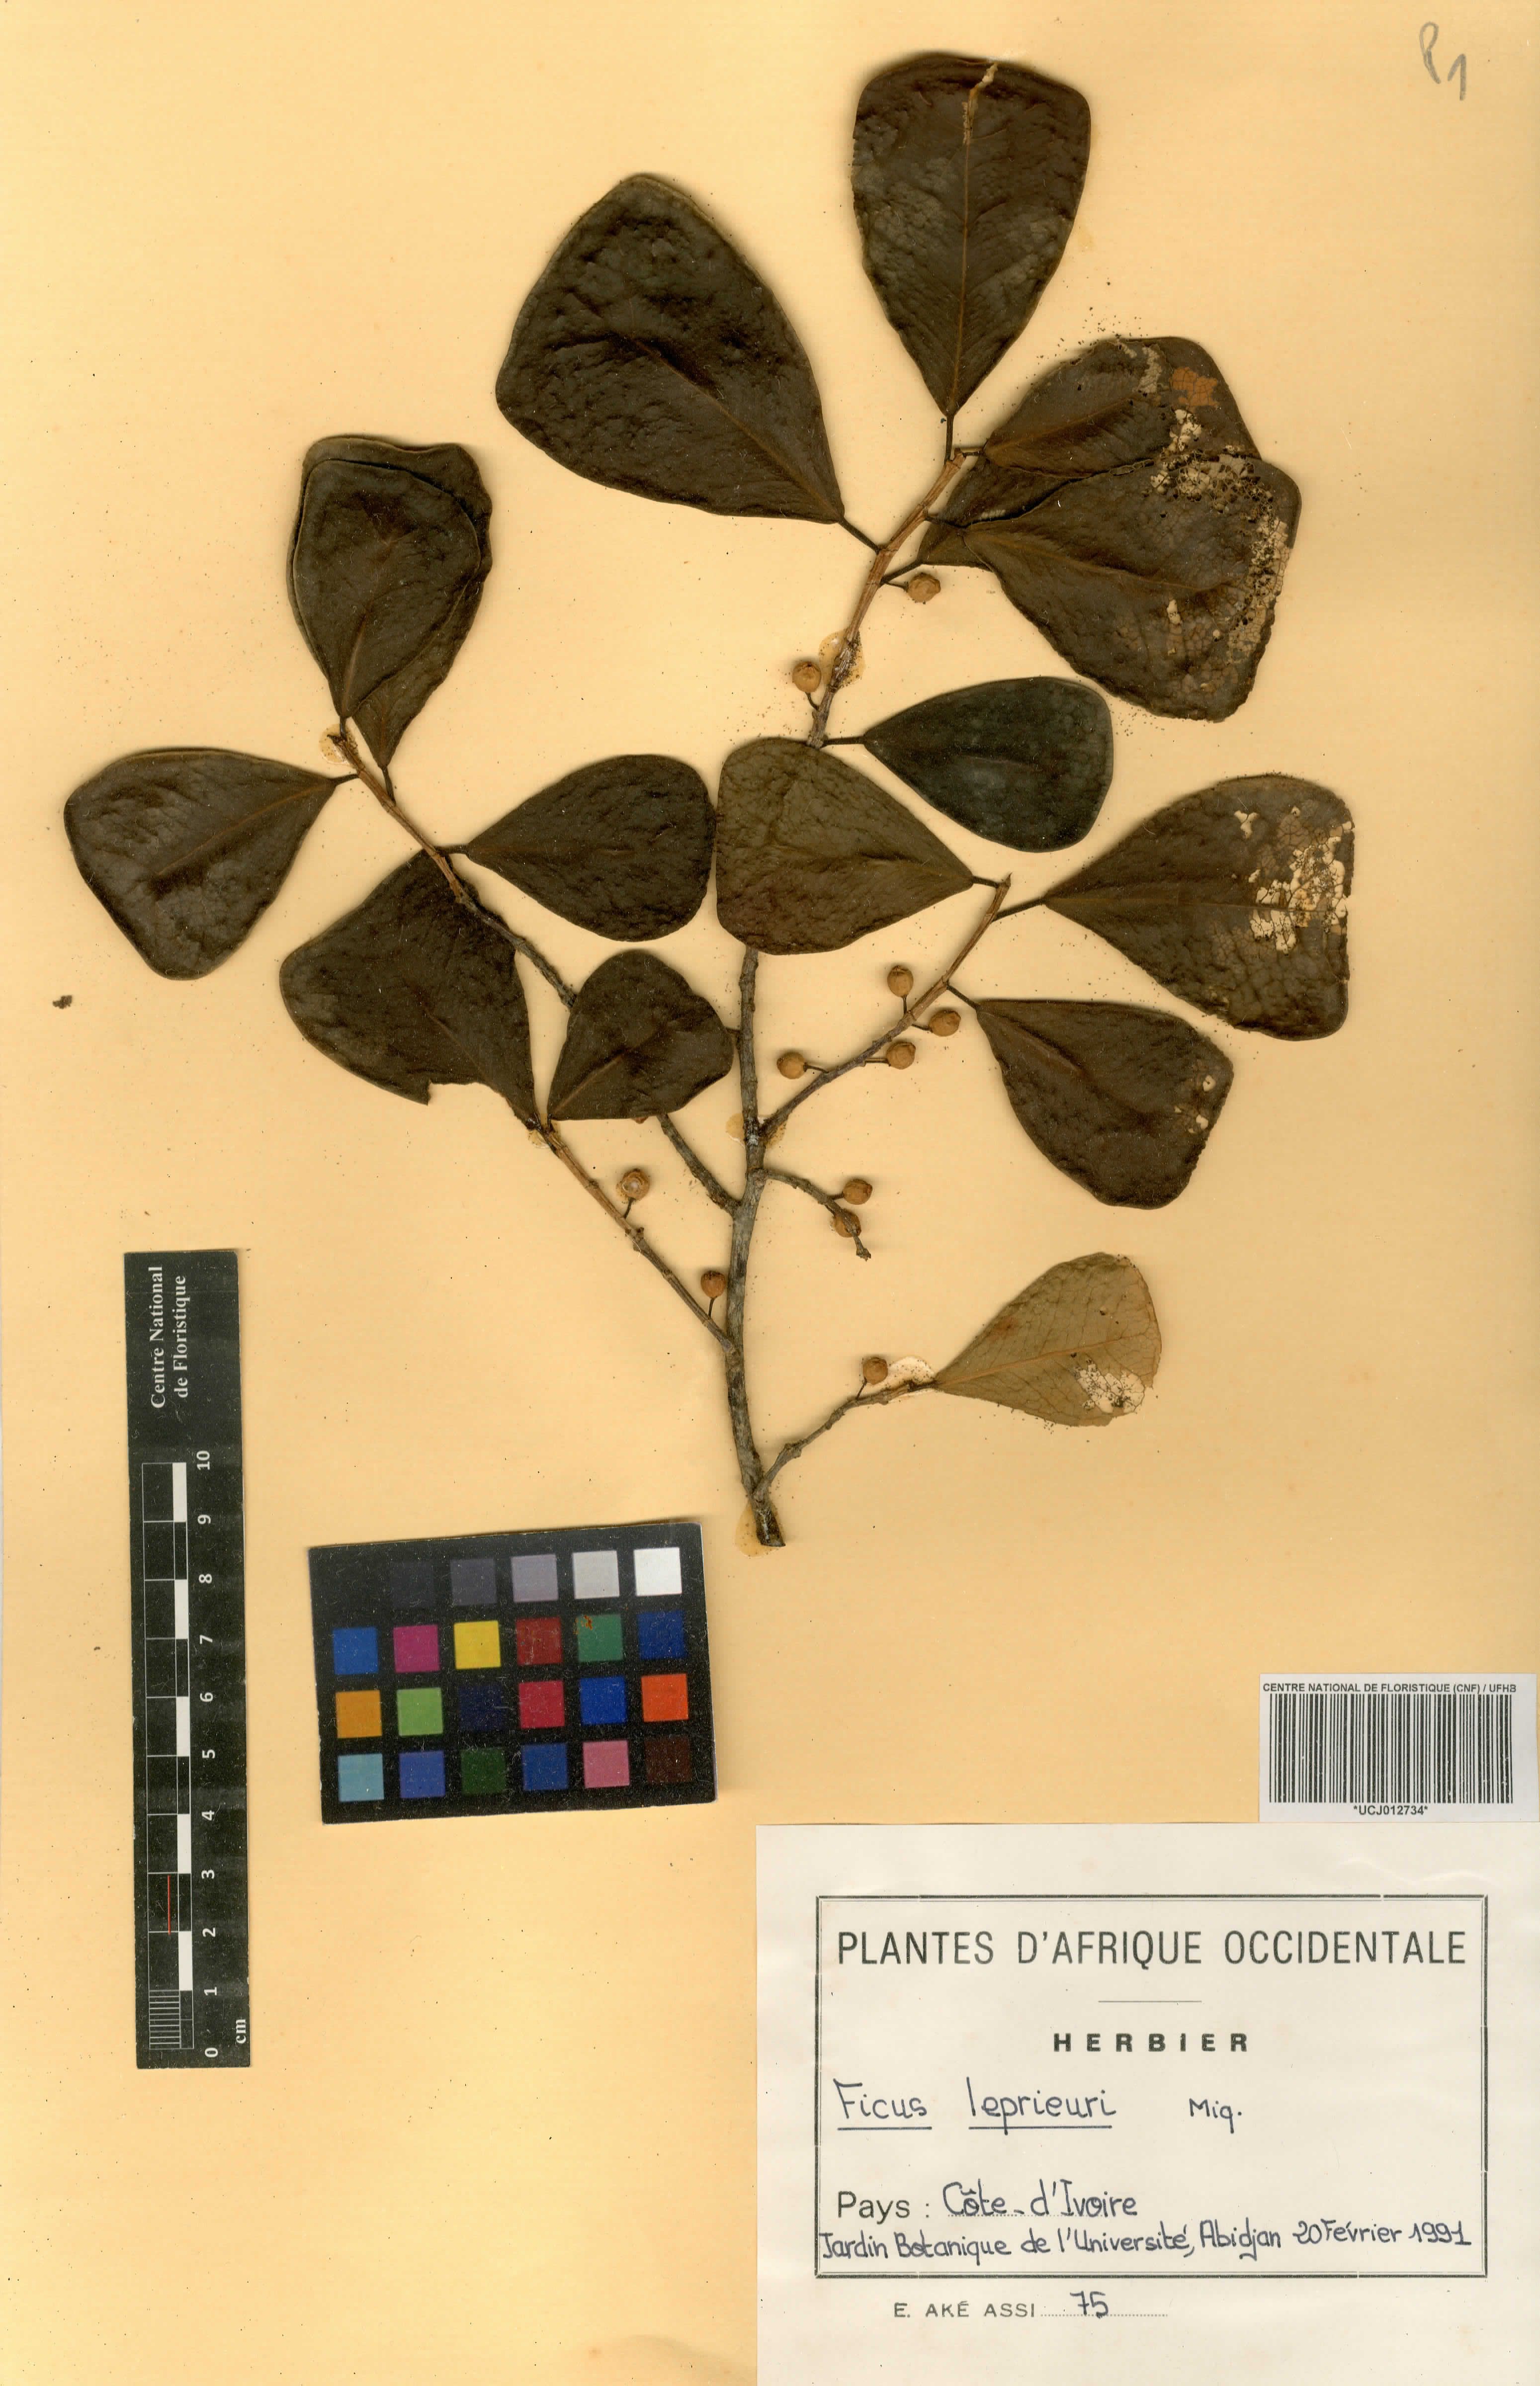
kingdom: Plantae
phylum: Tracheophyta
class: Magnoliopsida
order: Rosales
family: Moraceae
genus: Ficus
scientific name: Ficus natalensis
